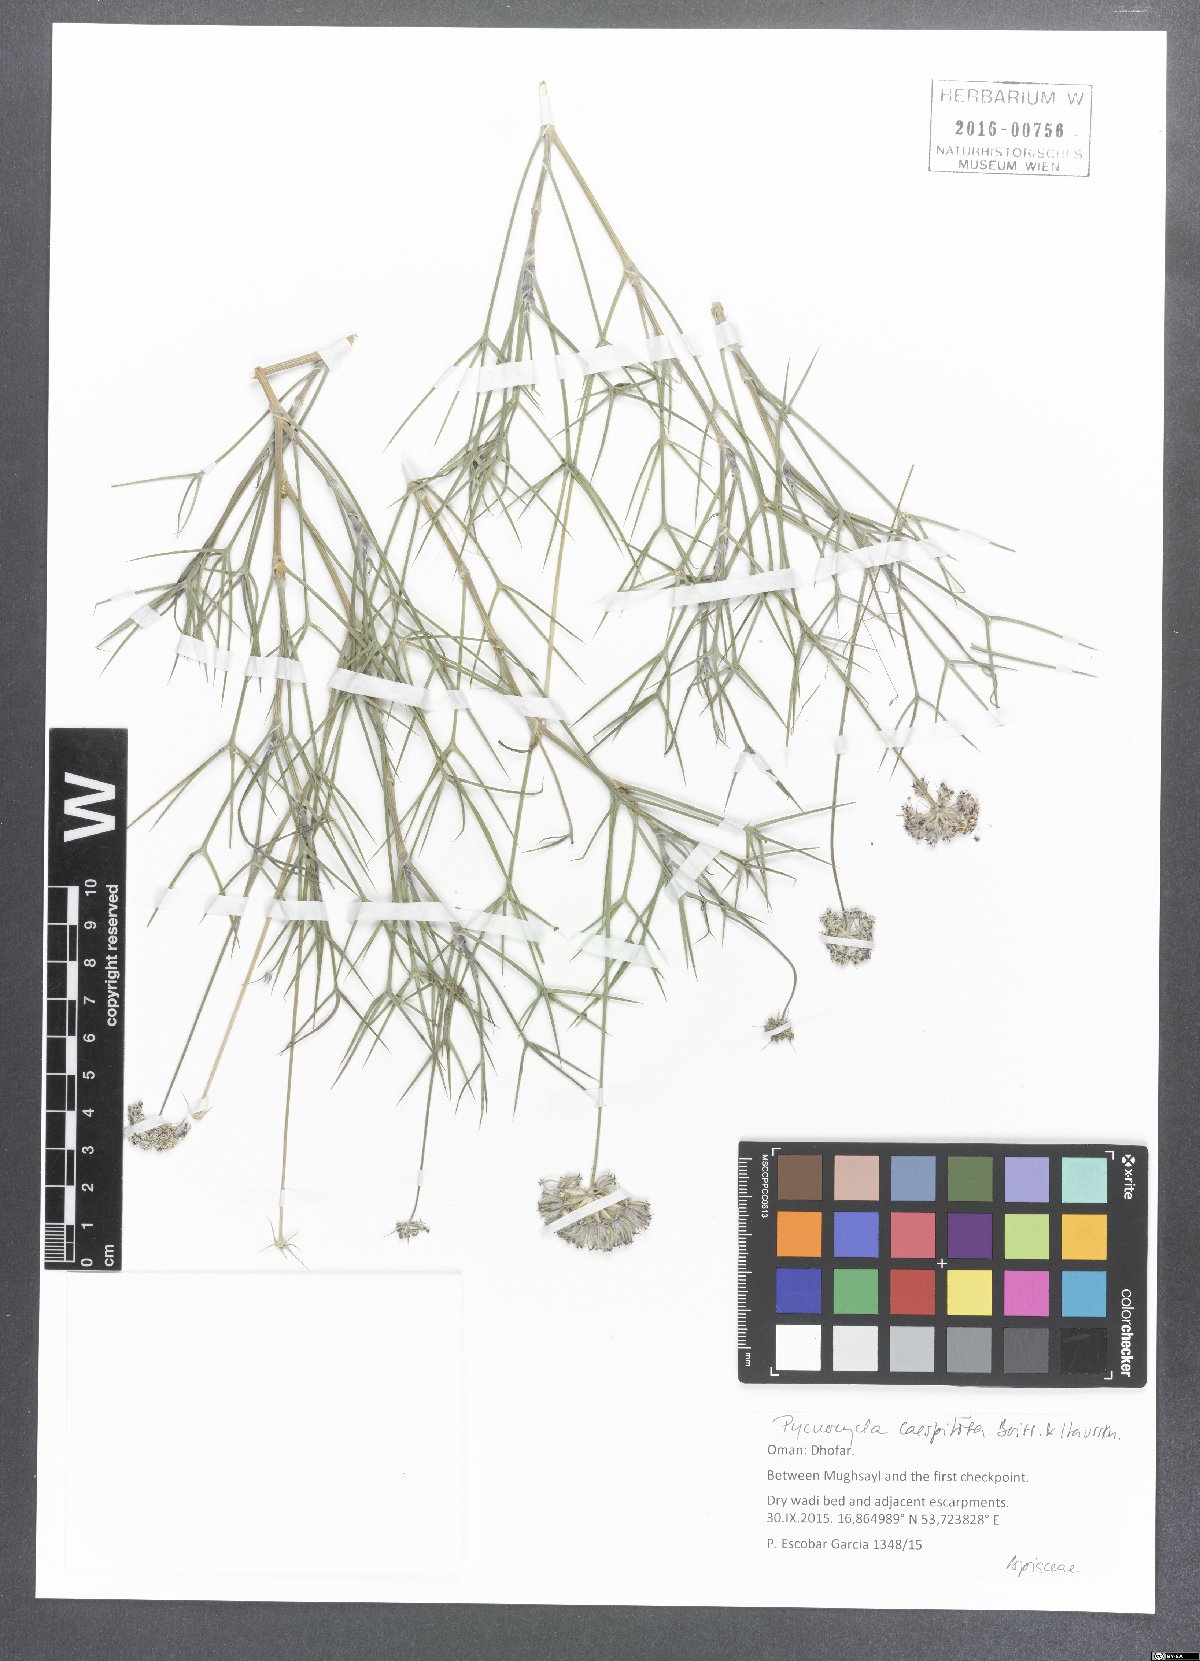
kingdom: Plantae
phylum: Tracheophyta
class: Magnoliopsida
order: Apiales
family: Apiaceae
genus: Pycnocycla
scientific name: Pycnocycla cespitosa
